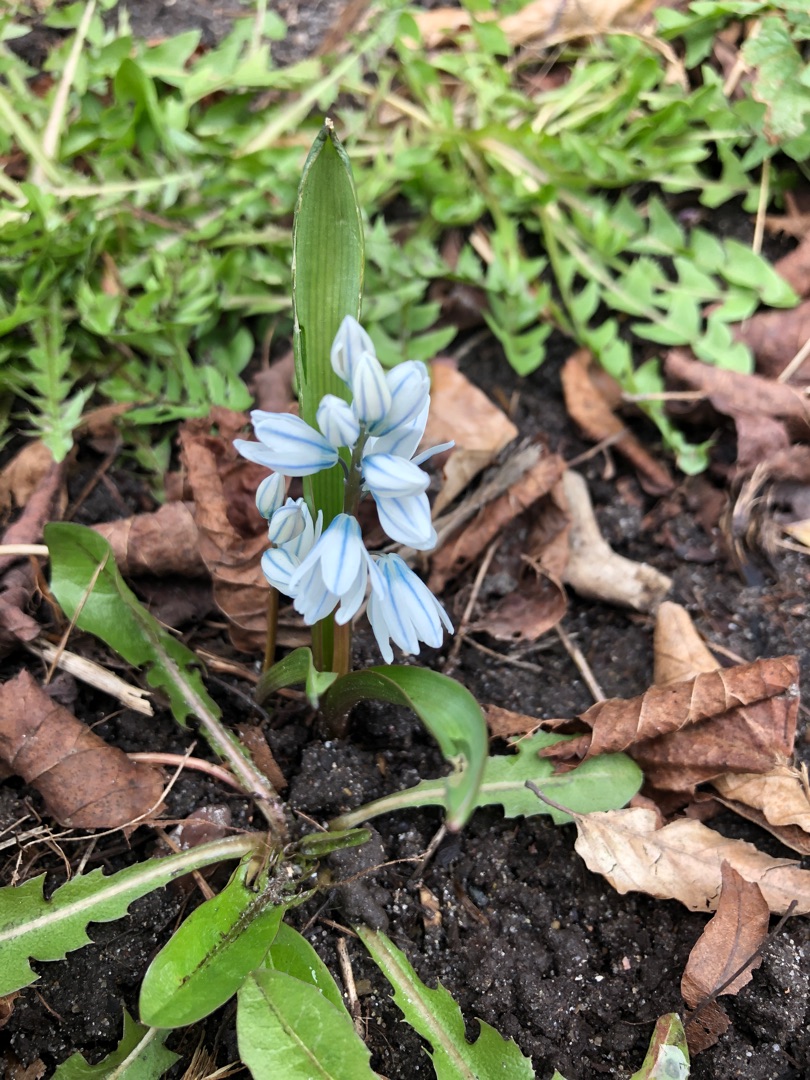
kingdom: Plantae
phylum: Tracheophyta
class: Liliopsida
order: Asparagales
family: Asparagaceae
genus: Puschkinia
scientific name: Puschkinia scilloides
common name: Porcelænshyacint
